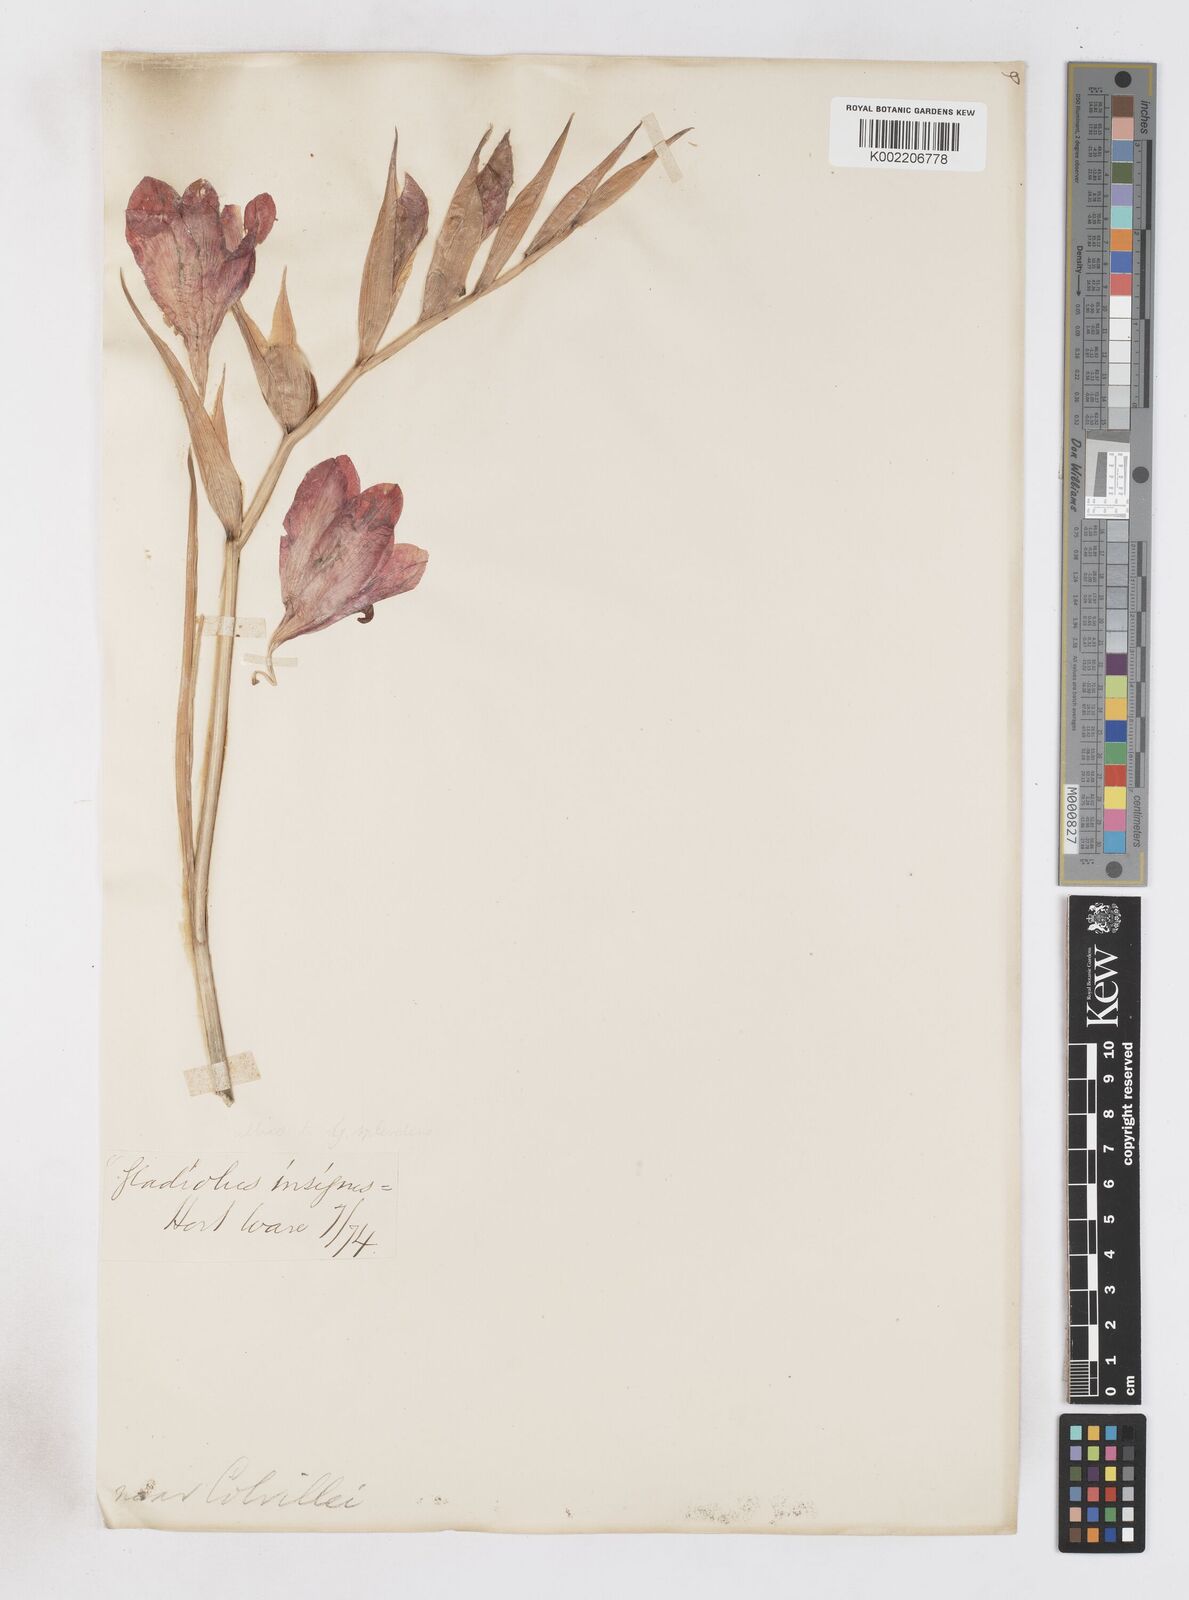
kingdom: Plantae
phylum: Tracheophyta
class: Liliopsida
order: Asparagales
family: Iridaceae
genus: Gladiolus
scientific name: Gladiolus colvillei
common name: Gladiolus
